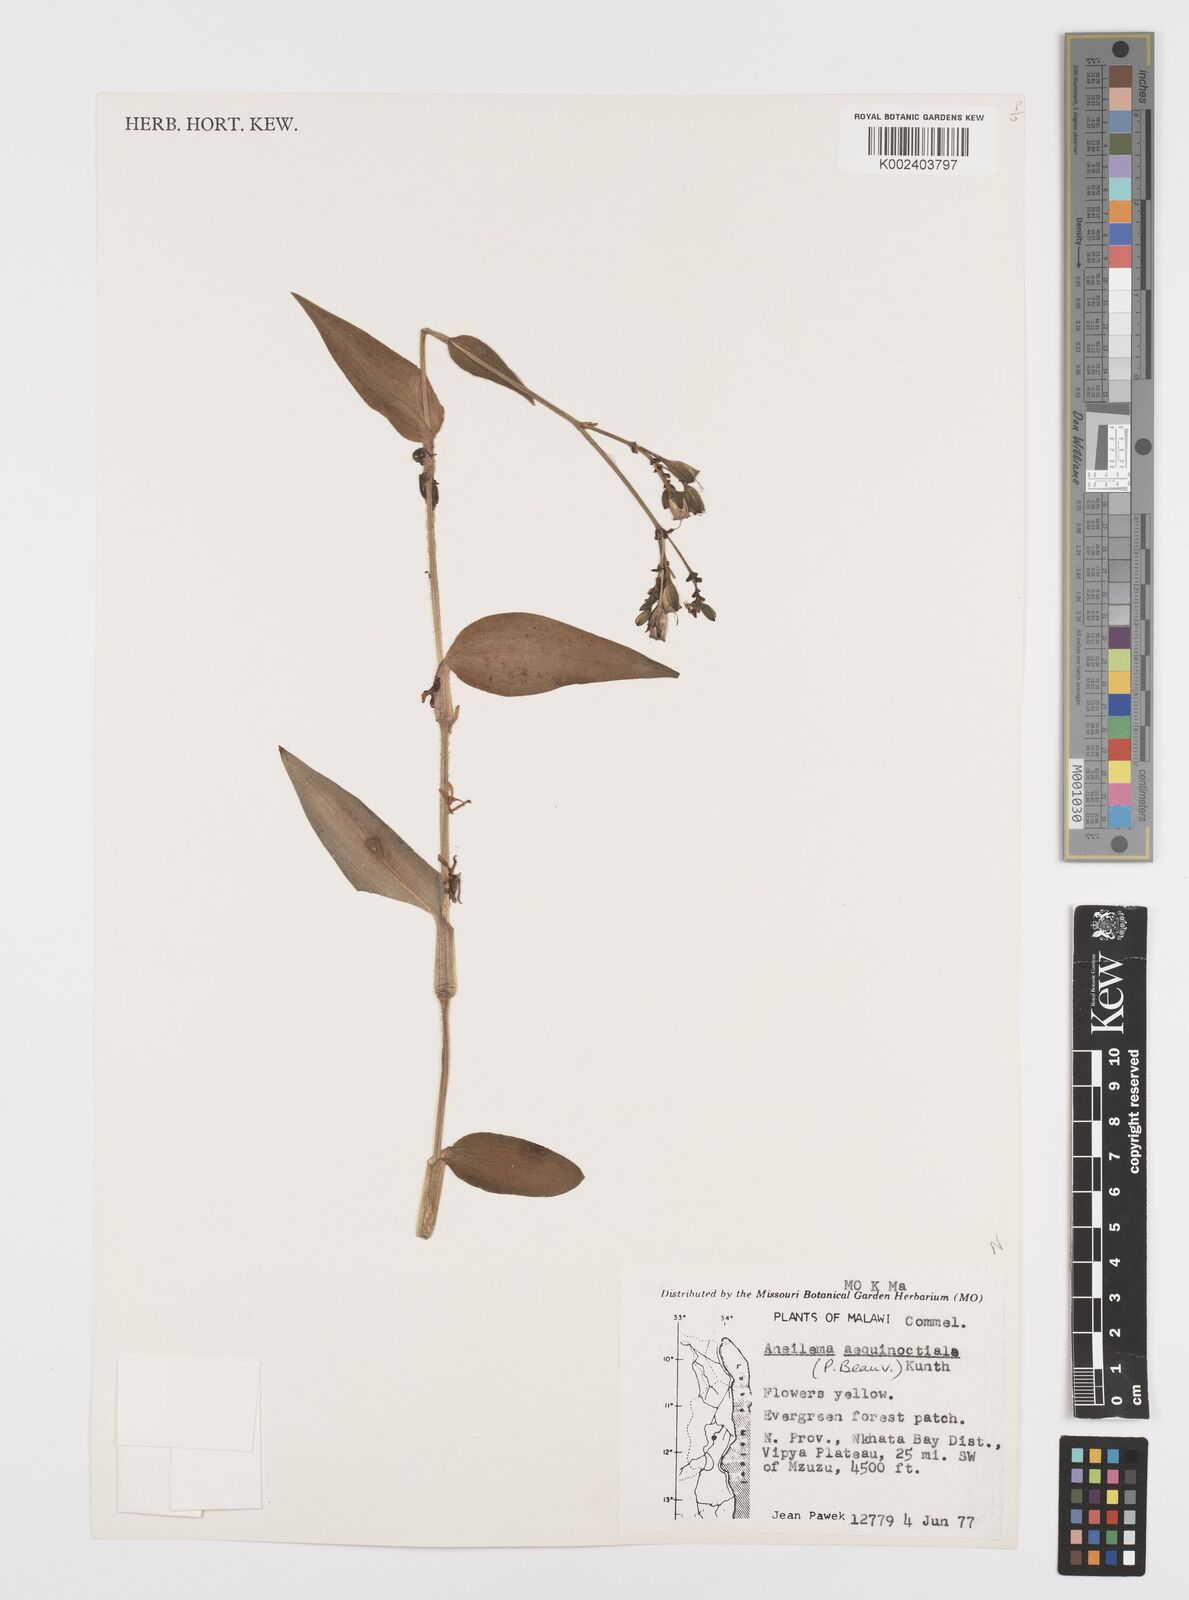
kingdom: Plantae
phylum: Tracheophyta
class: Liliopsida
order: Commelinales
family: Commelinaceae
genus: Aneilema
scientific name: Aneilema aequinoctiale
